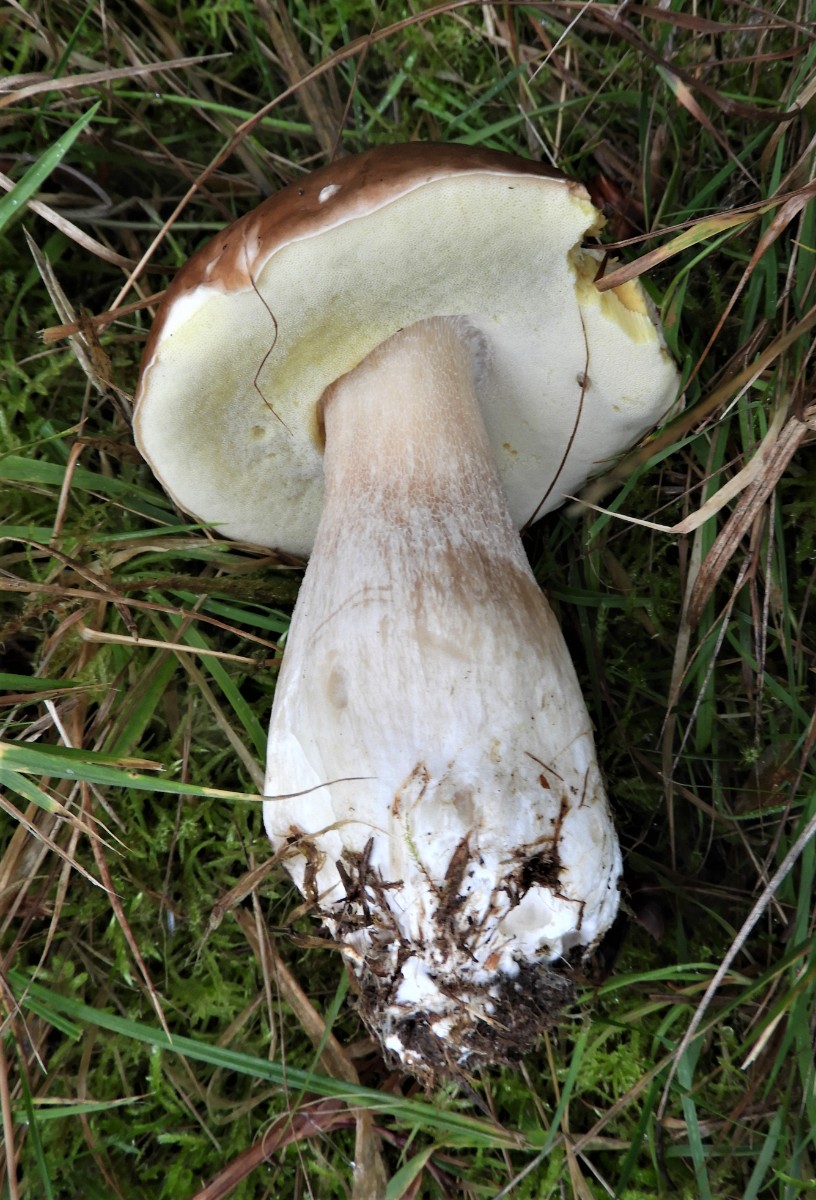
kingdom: Fungi
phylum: Basidiomycota
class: Agaricomycetes
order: Boletales
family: Boletaceae
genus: Boletus
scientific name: Boletus edulis
